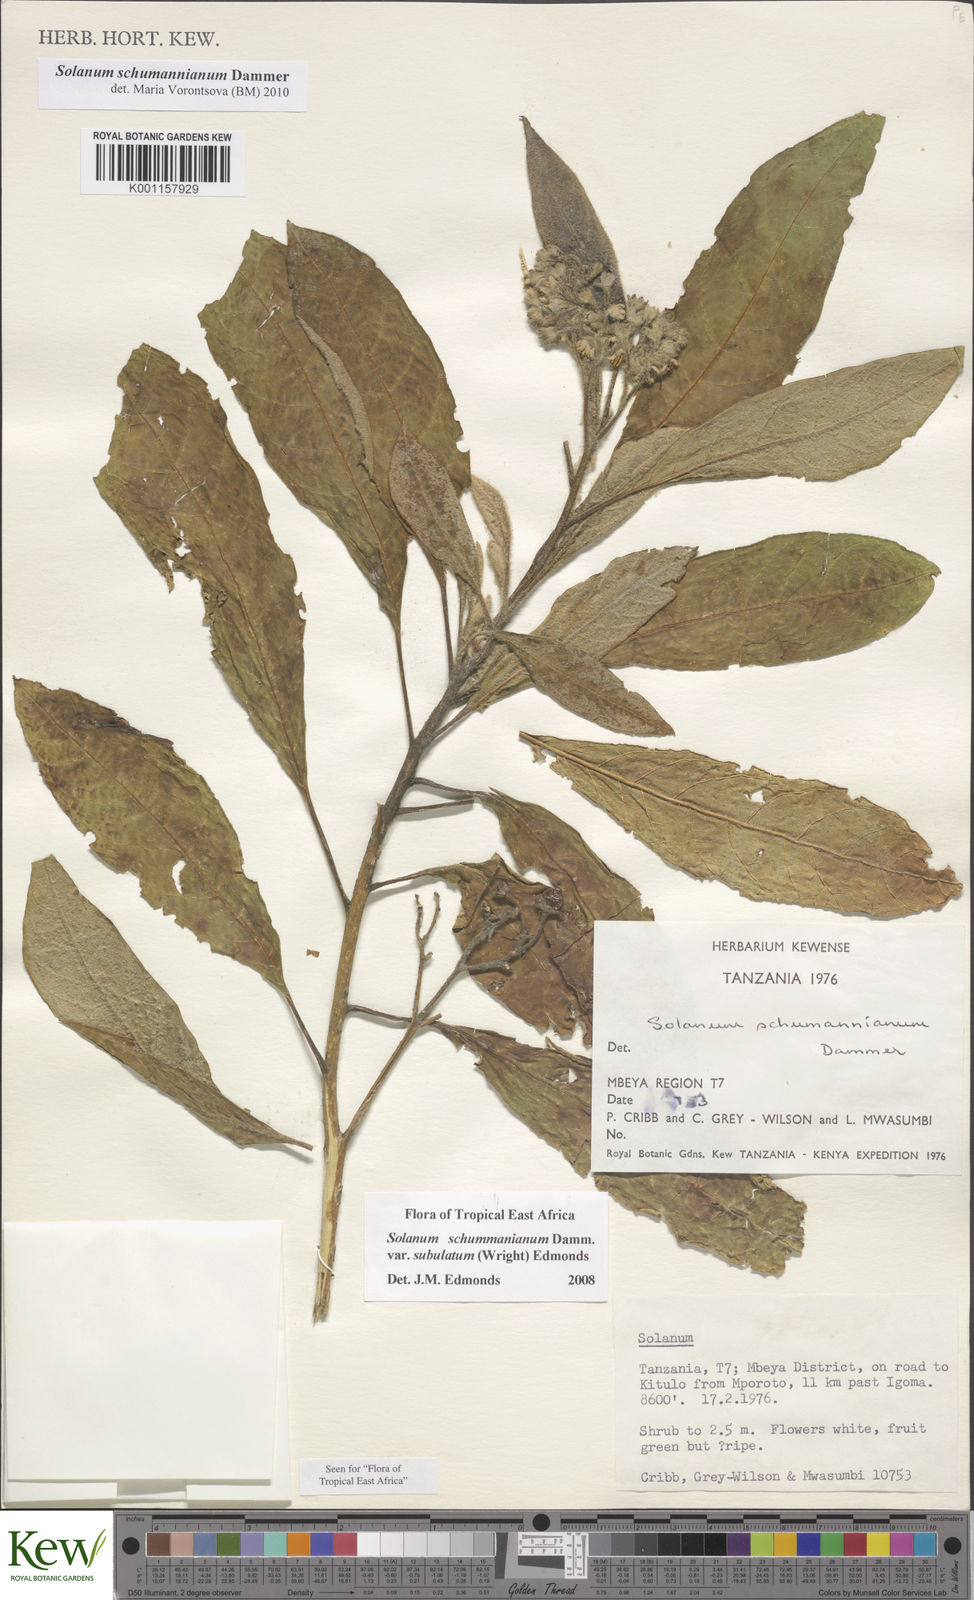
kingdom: Plantae
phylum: Tracheophyta
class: Magnoliopsida
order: Solanales
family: Solanaceae
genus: Solanum
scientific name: Solanum schumannianum
